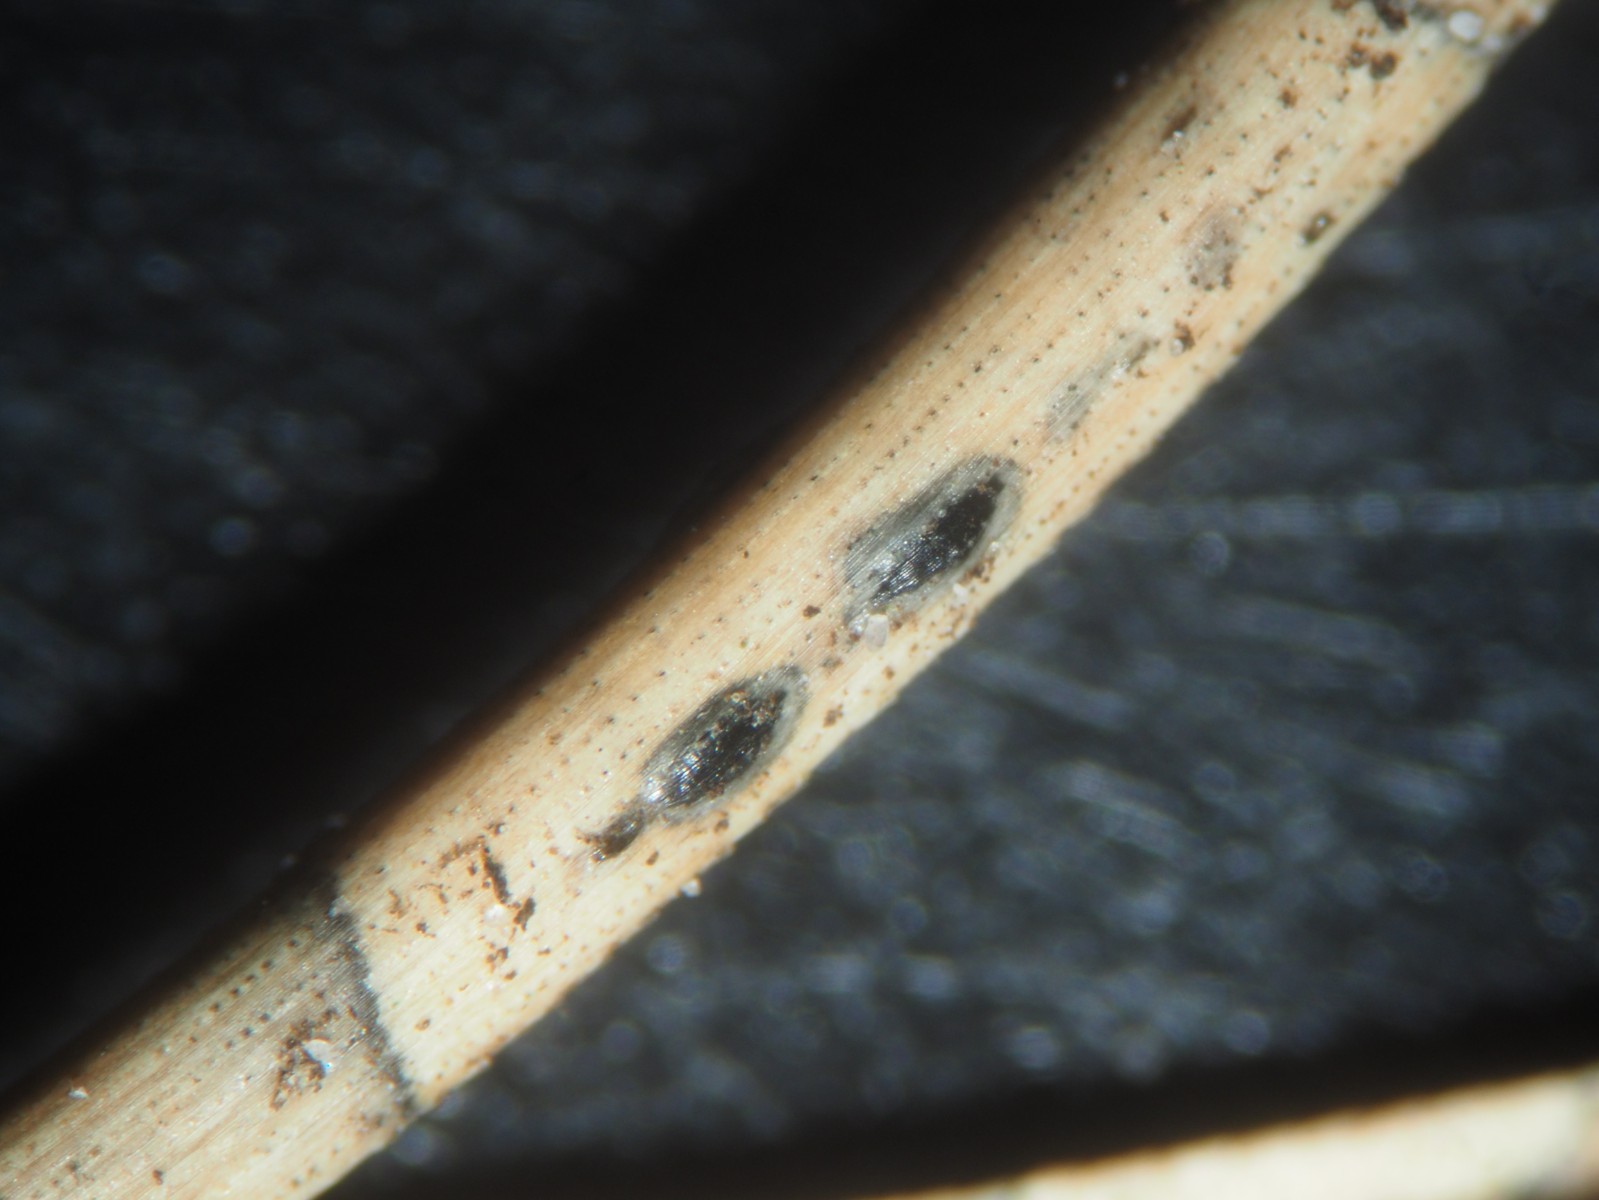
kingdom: Fungi
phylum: Ascomycota
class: Leotiomycetes
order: Rhytismatales
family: Rhytismataceae
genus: Lophodermium
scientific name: Lophodermium pinastri
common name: fyrre-fureplet
